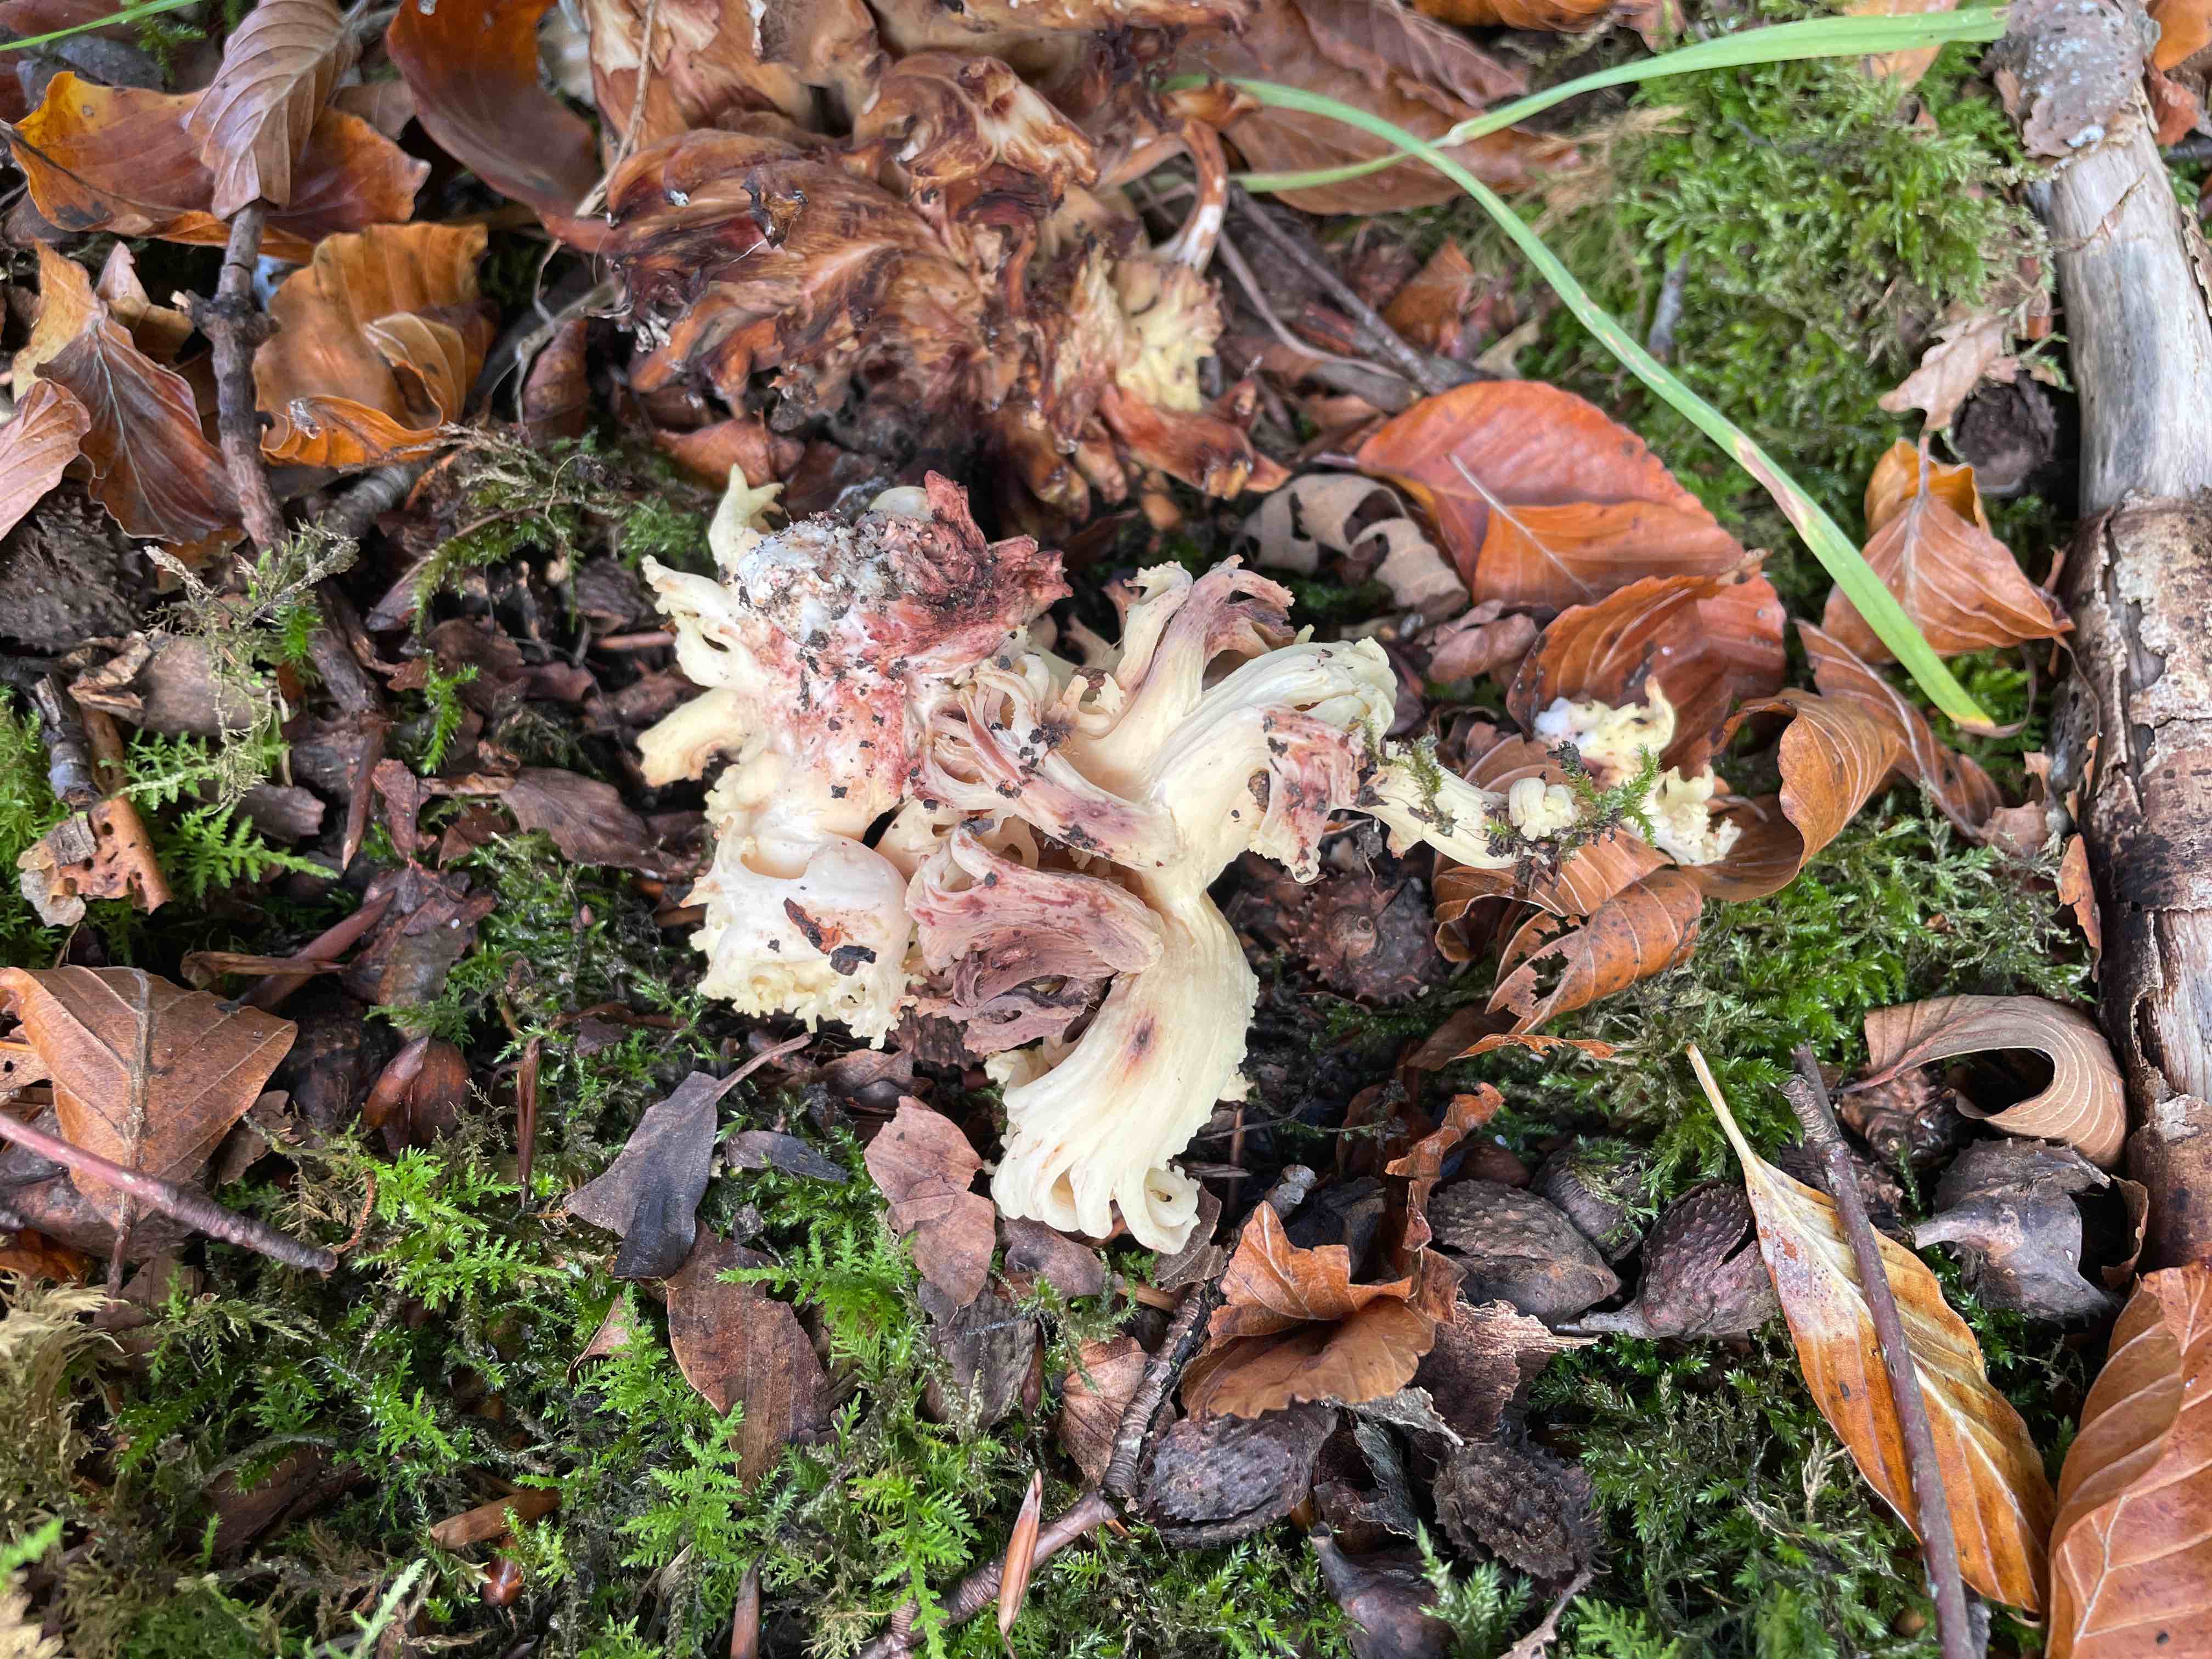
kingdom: Fungi
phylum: Basidiomycota
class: Agaricomycetes
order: Gomphales
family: Gomphaceae
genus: Ramaria
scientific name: Ramaria sanguinea
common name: blodplettet koralsvamp
